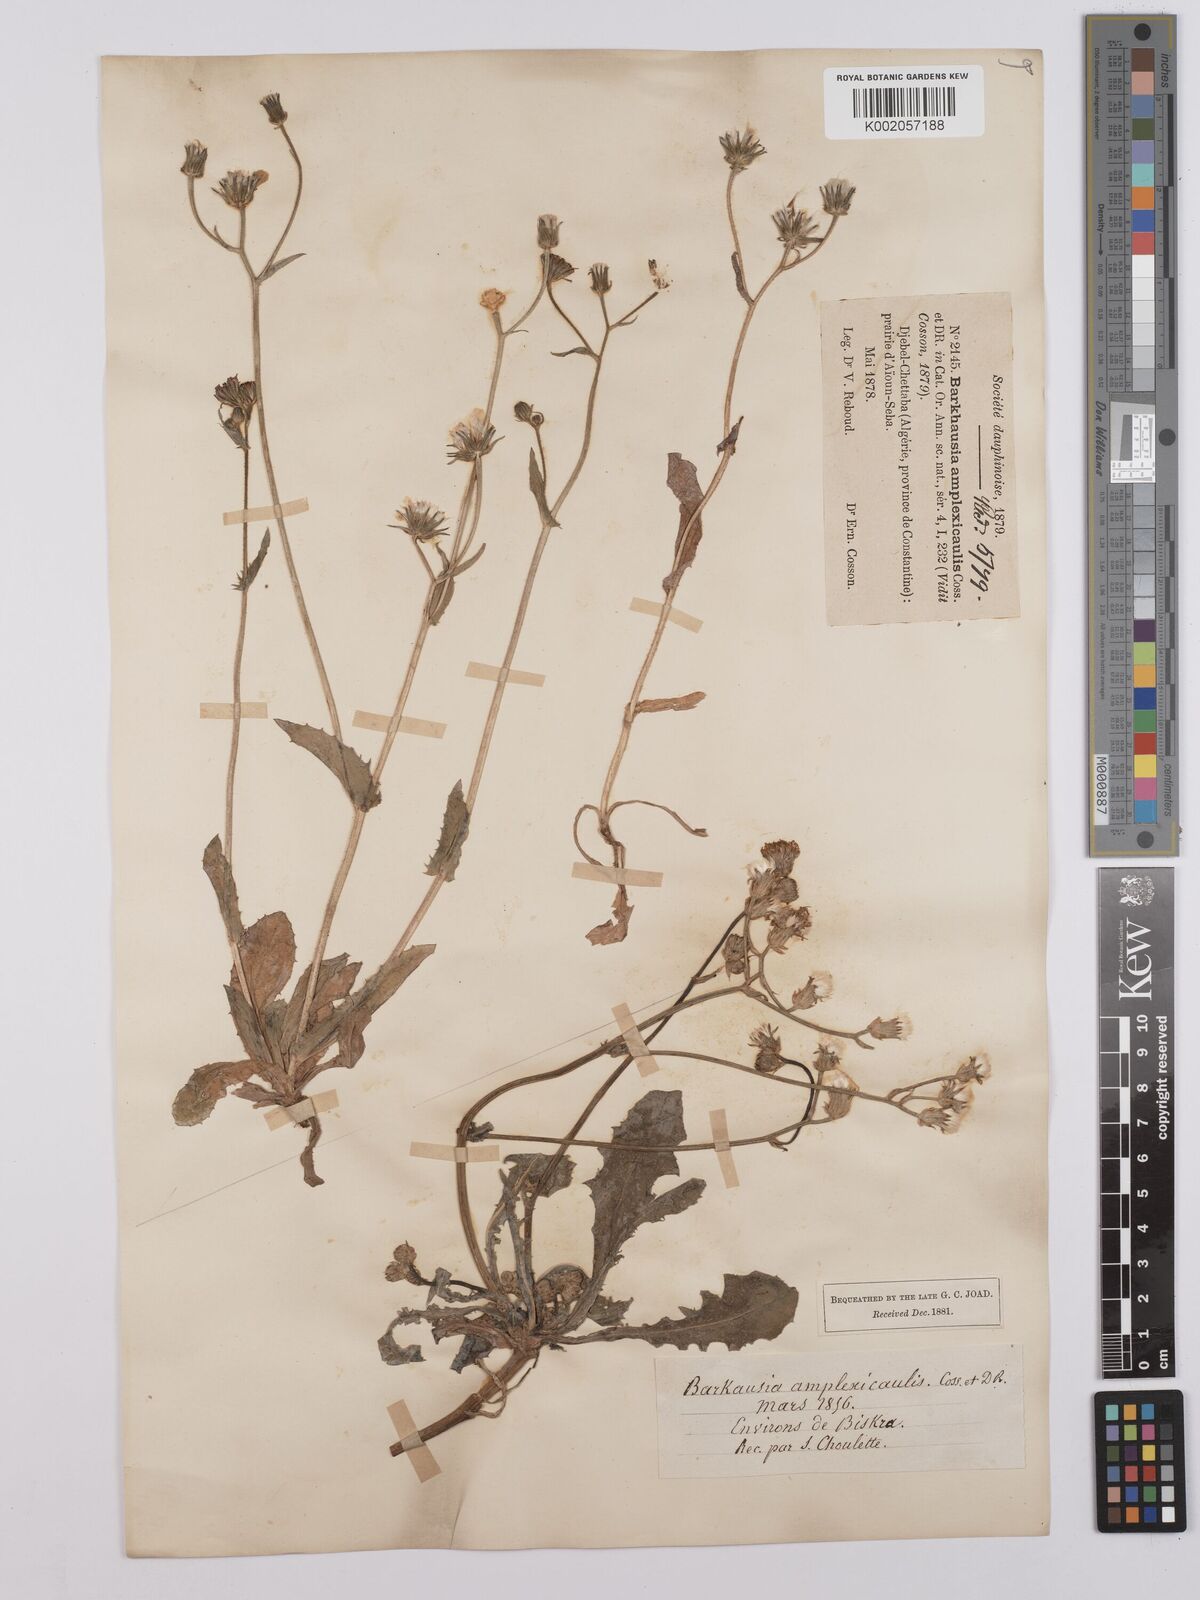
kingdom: Plantae
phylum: Tracheophyta
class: Magnoliopsida
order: Asterales
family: Asteraceae
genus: Crepis
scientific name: Crepis amplexifolia
